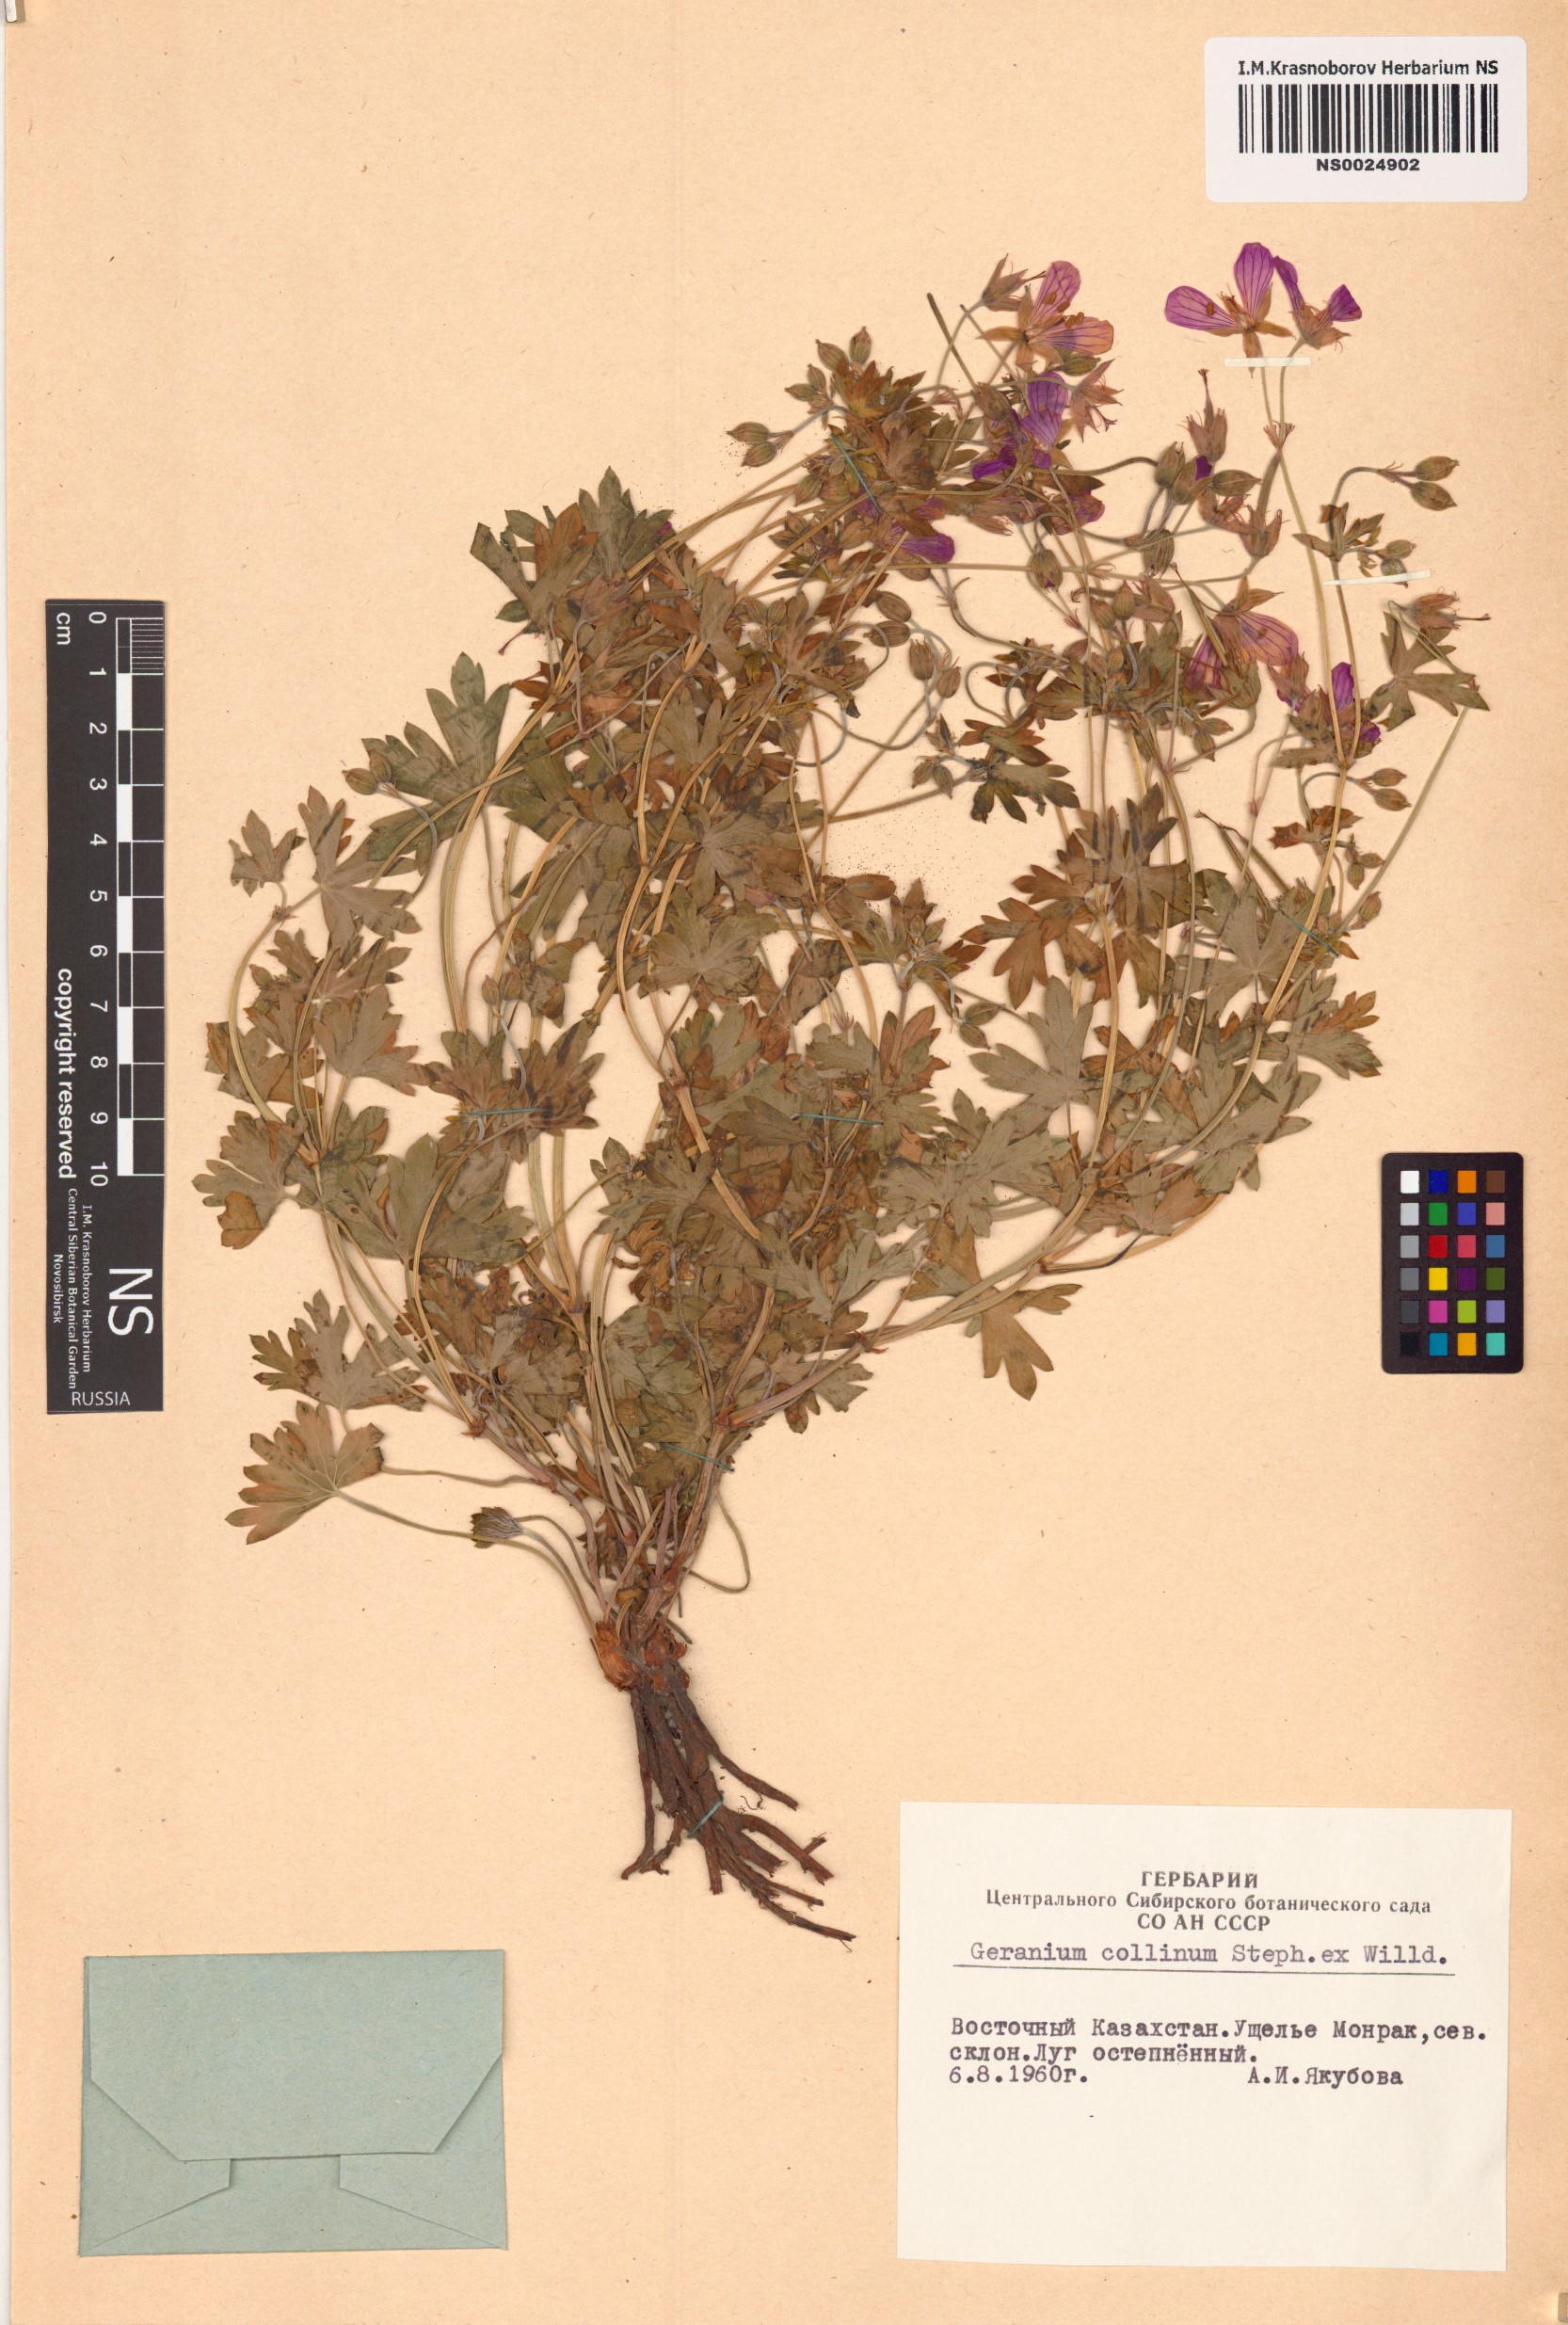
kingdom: Plantae
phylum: Tracheophyta
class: Magnoliopsida
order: Geraniales
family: Geraniaceae
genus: Geranium
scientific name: Geranium collinum
